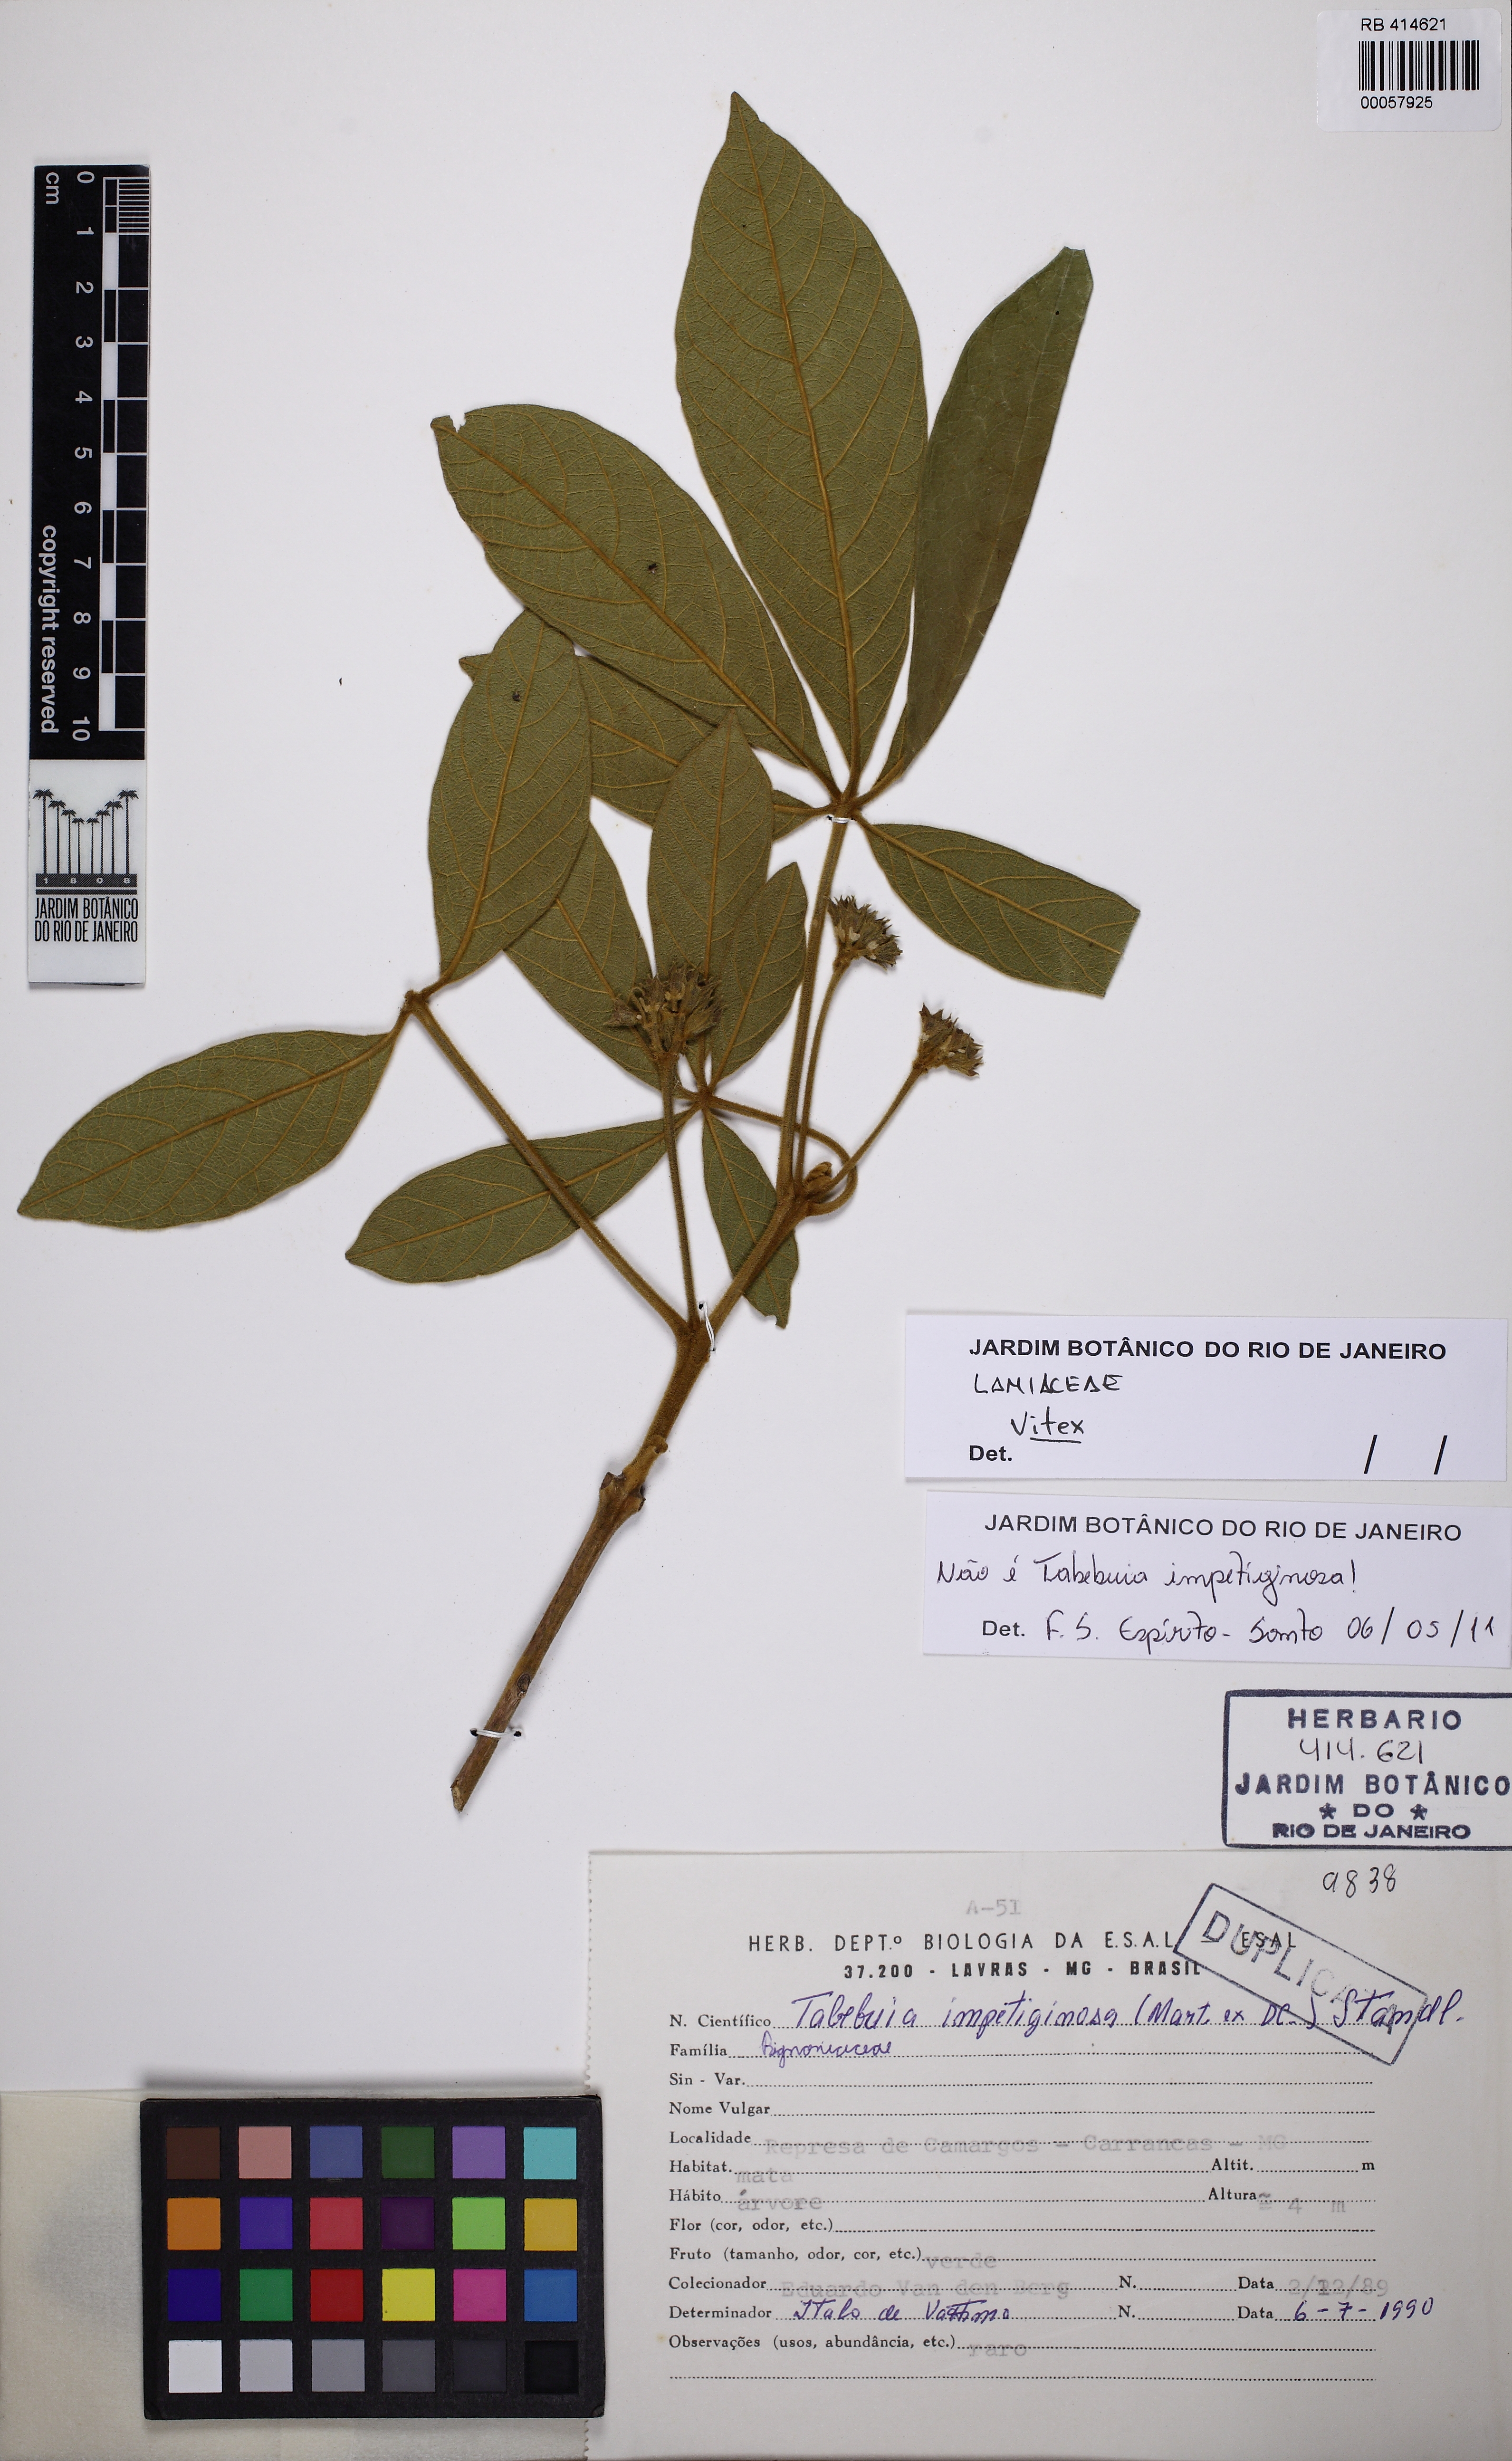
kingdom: Plantae
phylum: Tracheophyta
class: Magnoliopsida
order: Lamiales
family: Lamiaceae
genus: Vitex
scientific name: Vitex
